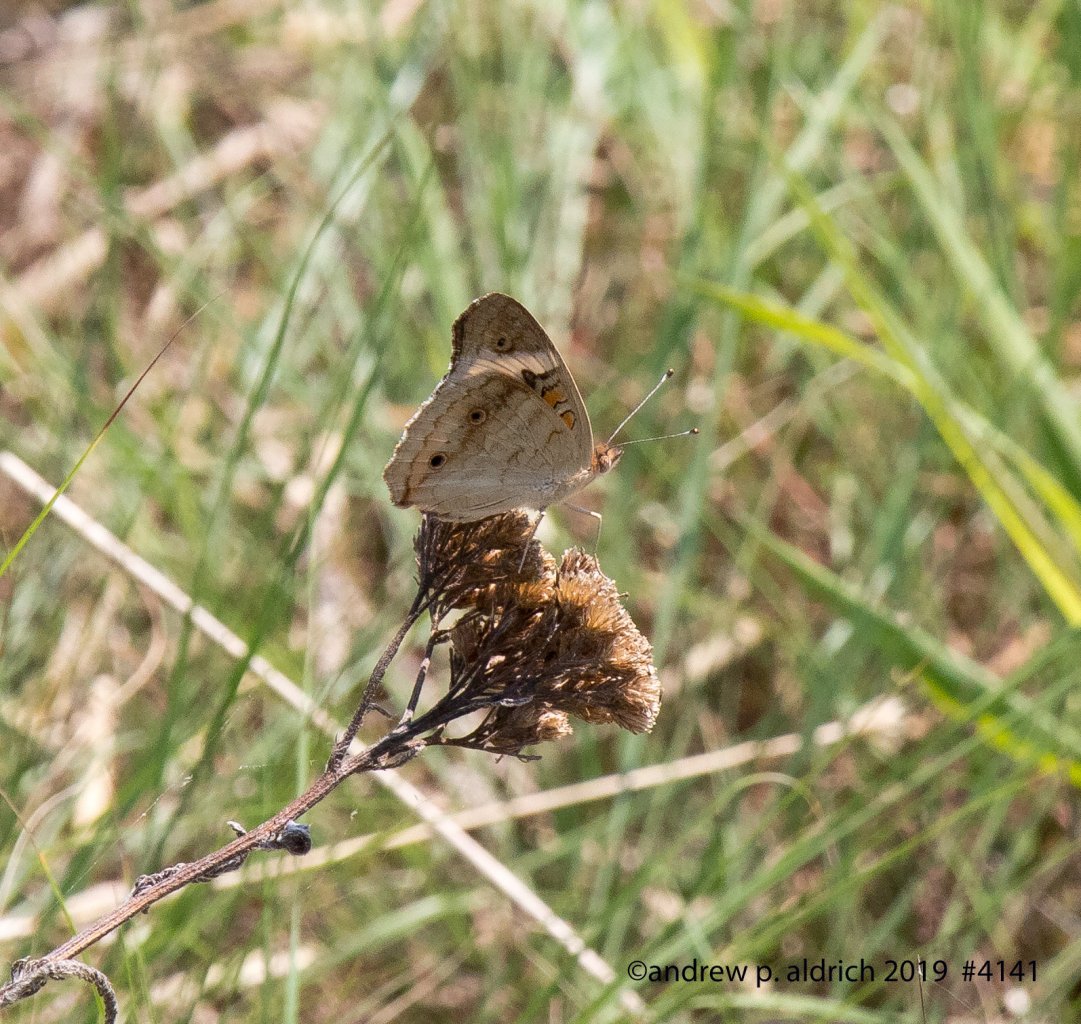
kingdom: Animalia
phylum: Arthropoda
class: Insecta
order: Lepidoptera
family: Nymphalidae
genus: Junonia
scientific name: Junonia coenia
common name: Common Buckeye
